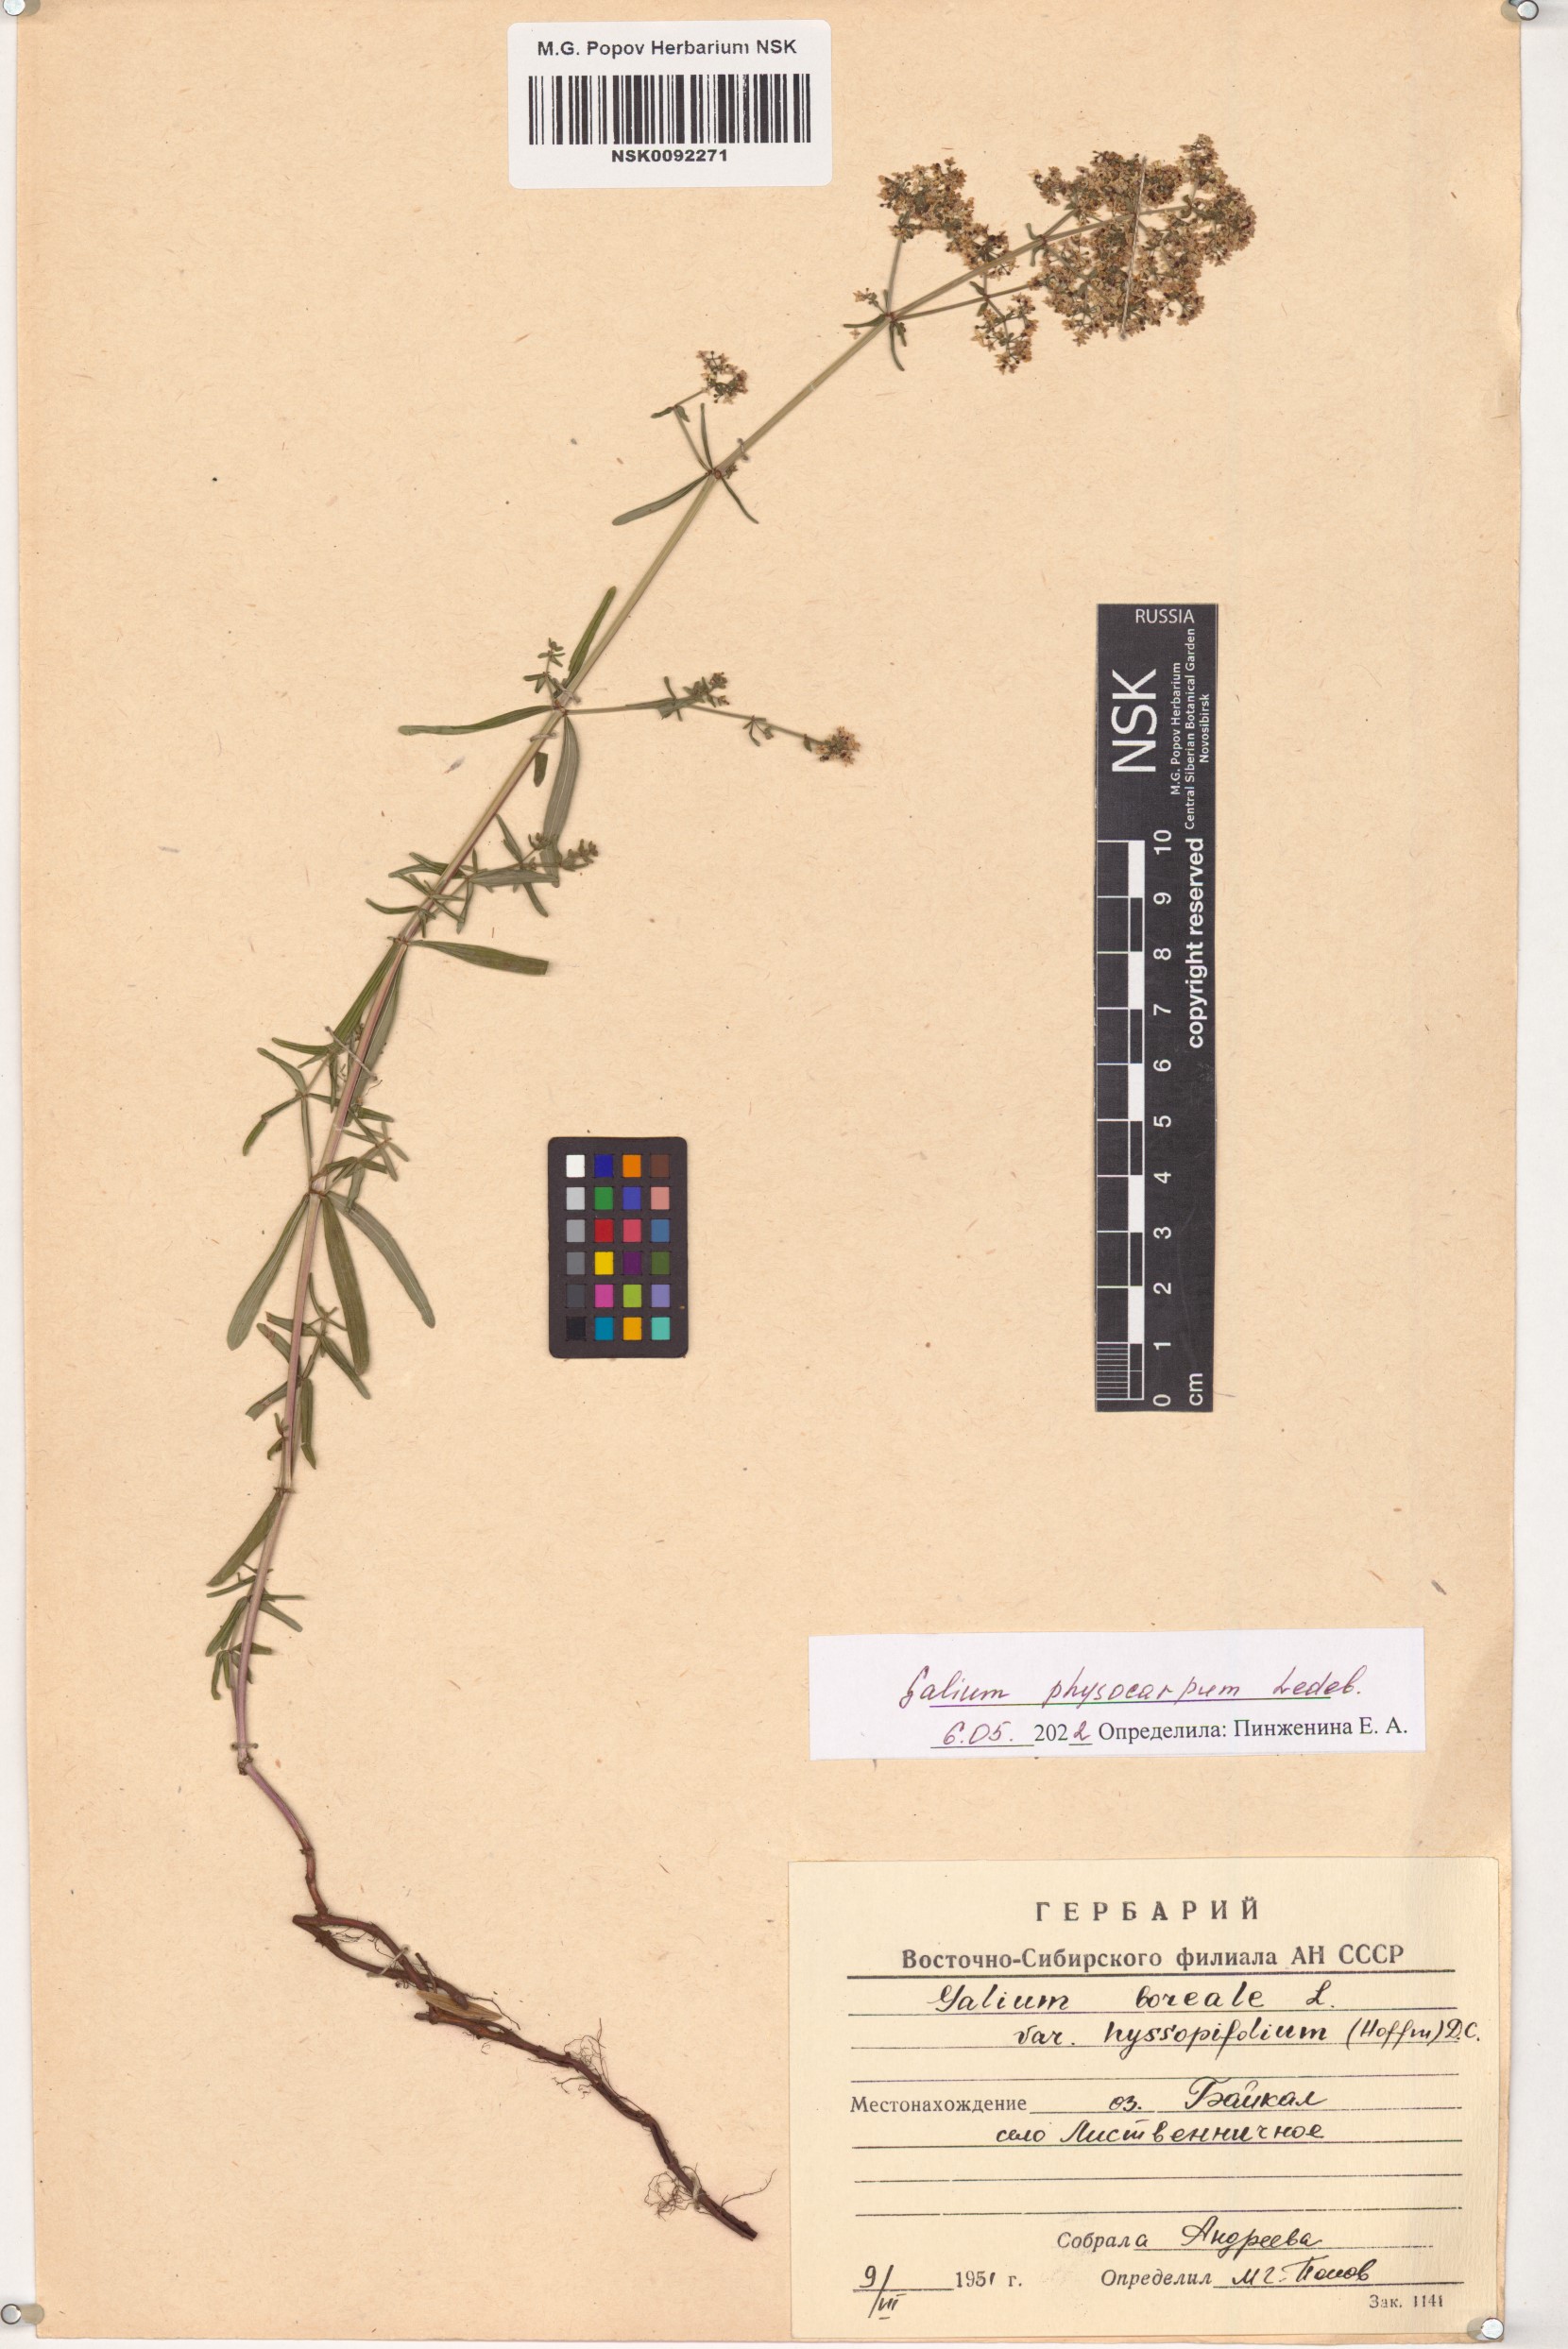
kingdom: Plantae
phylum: Tracheophyta
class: Magnoliopsida
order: Gentianales
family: Rubiaceae
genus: Galium
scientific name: Galium rubioides
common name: European bedstraw
